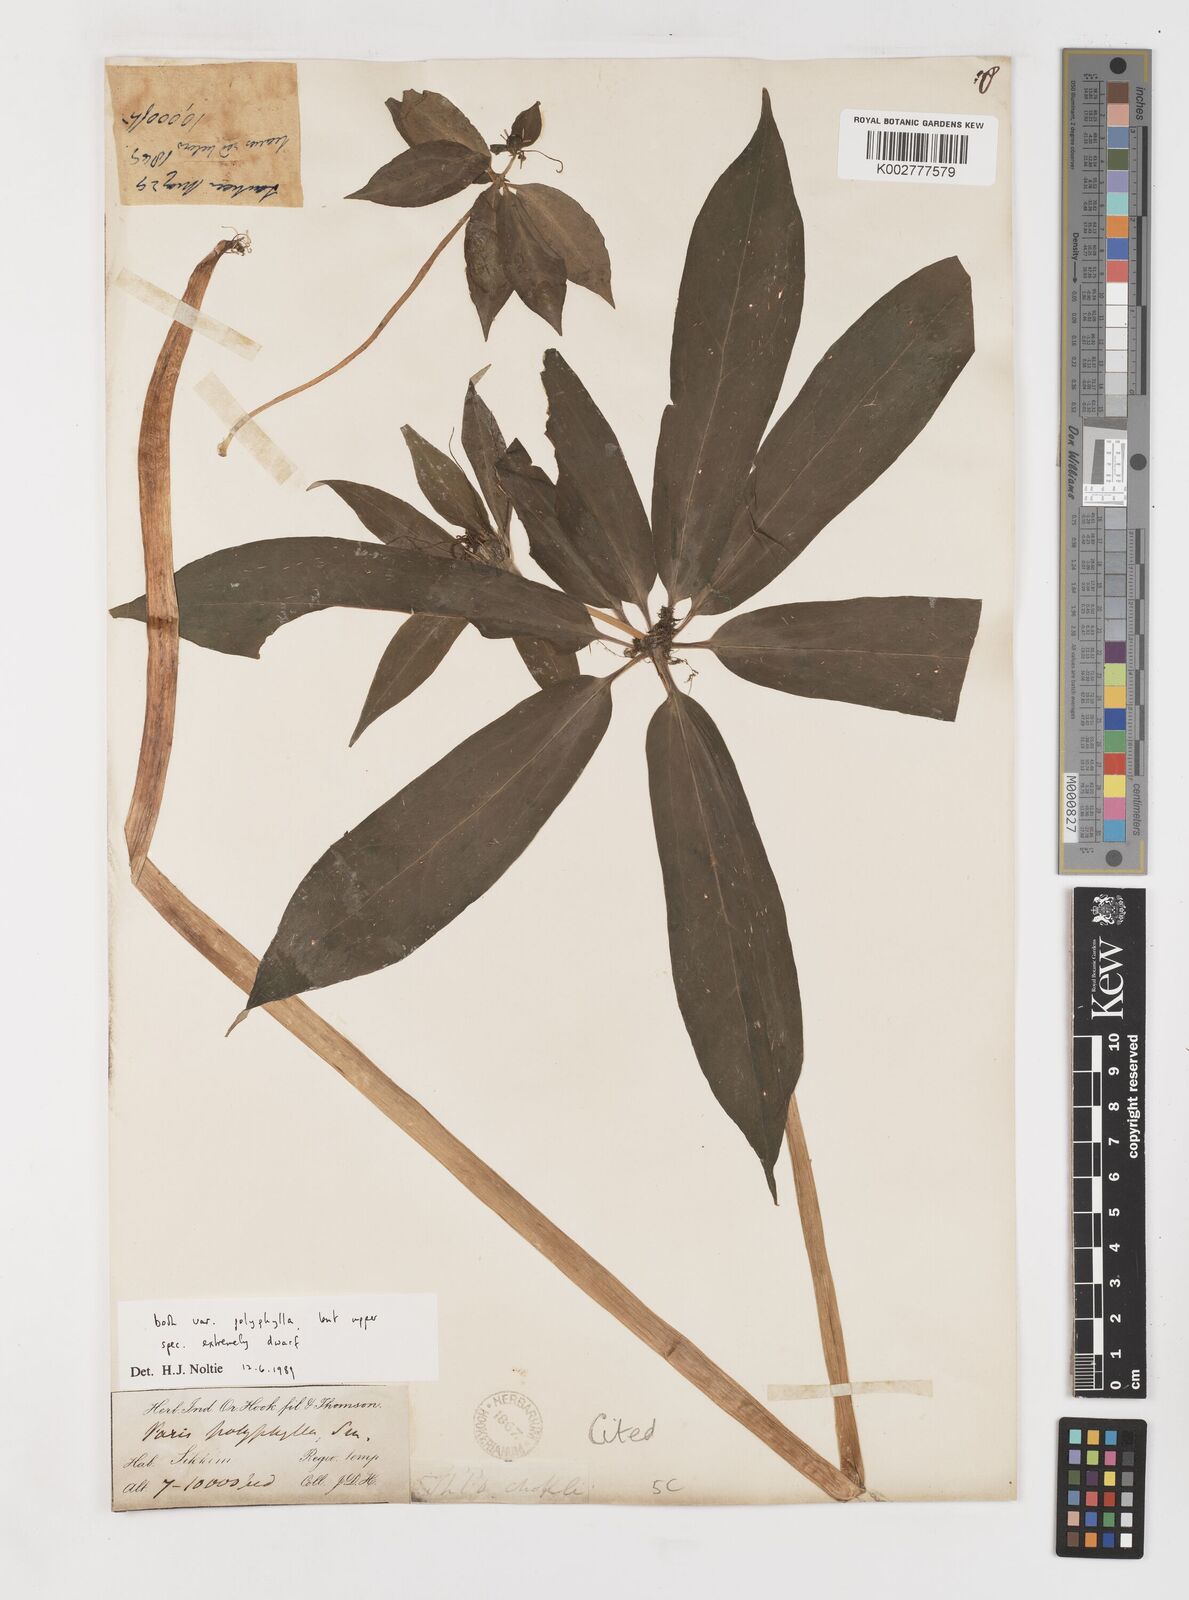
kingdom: Plantae
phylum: Tracheophyta
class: Liliopsida
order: Liliales
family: Melanthiaceae
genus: Paris
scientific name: Paris polyphylla
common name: Love apple
